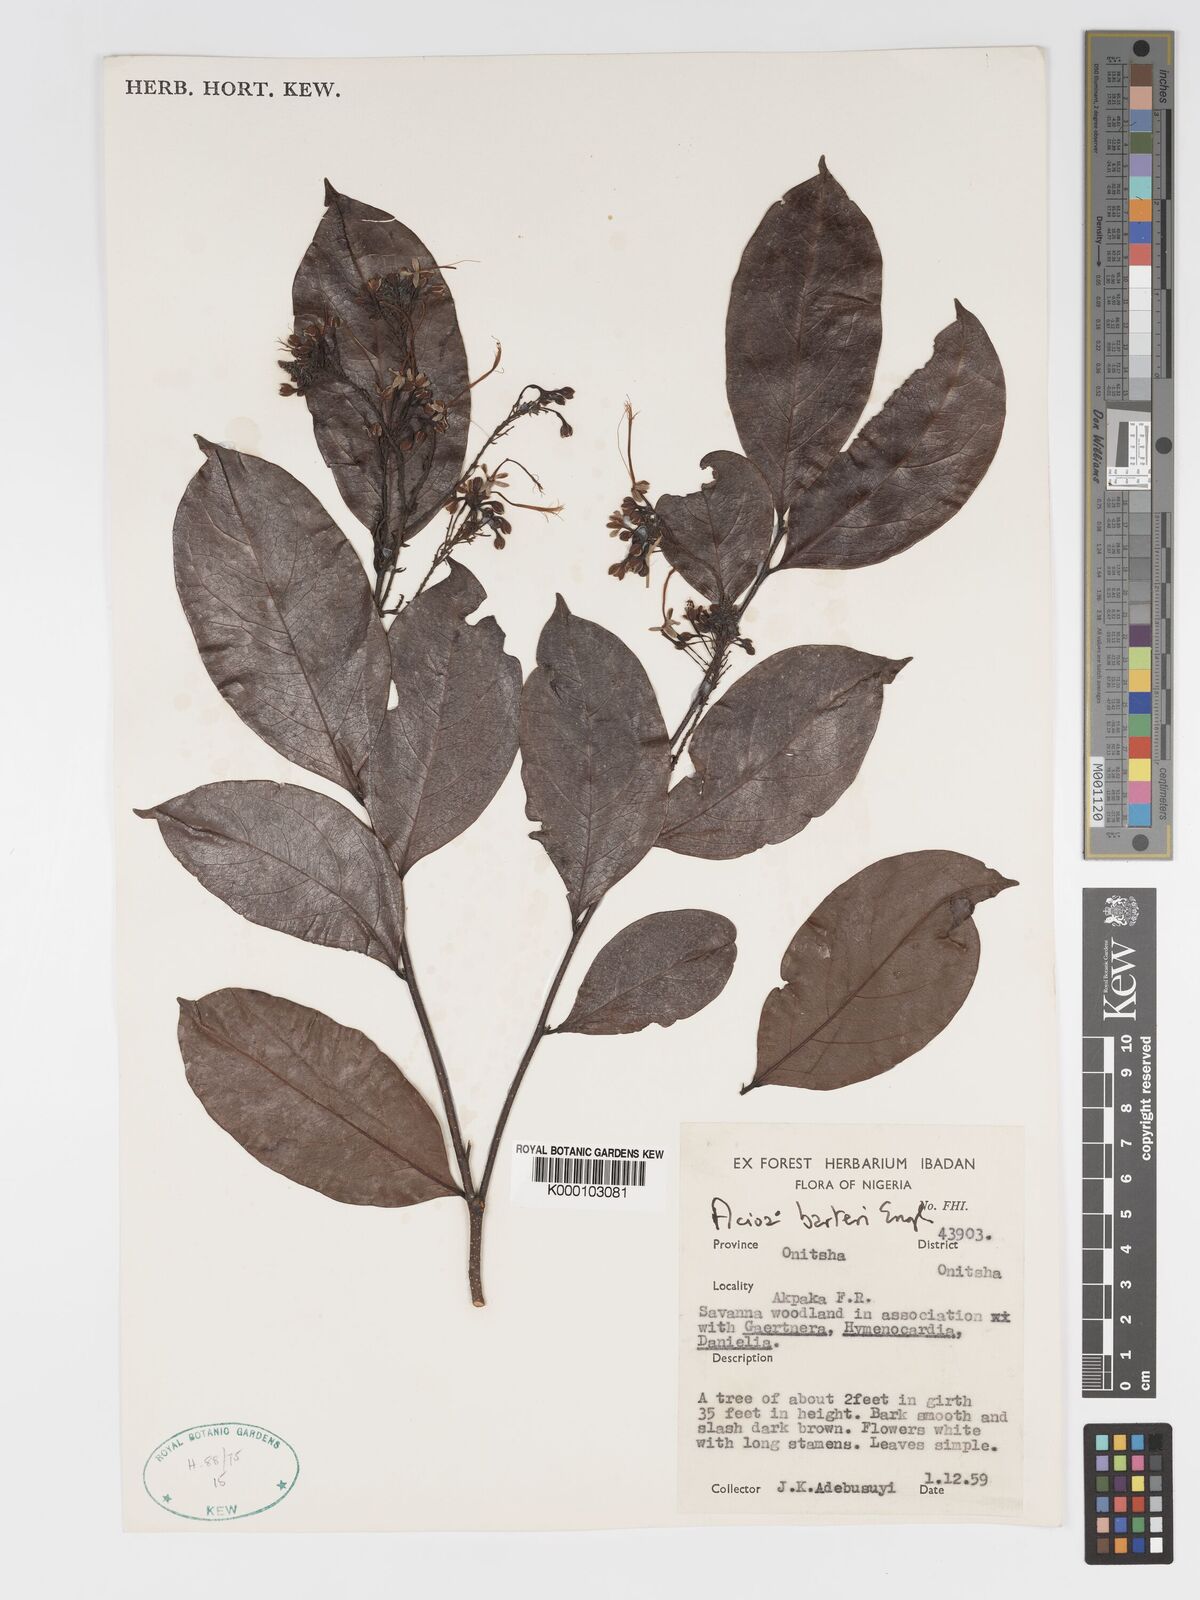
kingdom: Plantae
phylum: Tracheophyta
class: Magnoliopsida
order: Malpighiales
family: Chrysobalanaceae
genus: Dactyladenia
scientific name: Dactyladenia barteri
